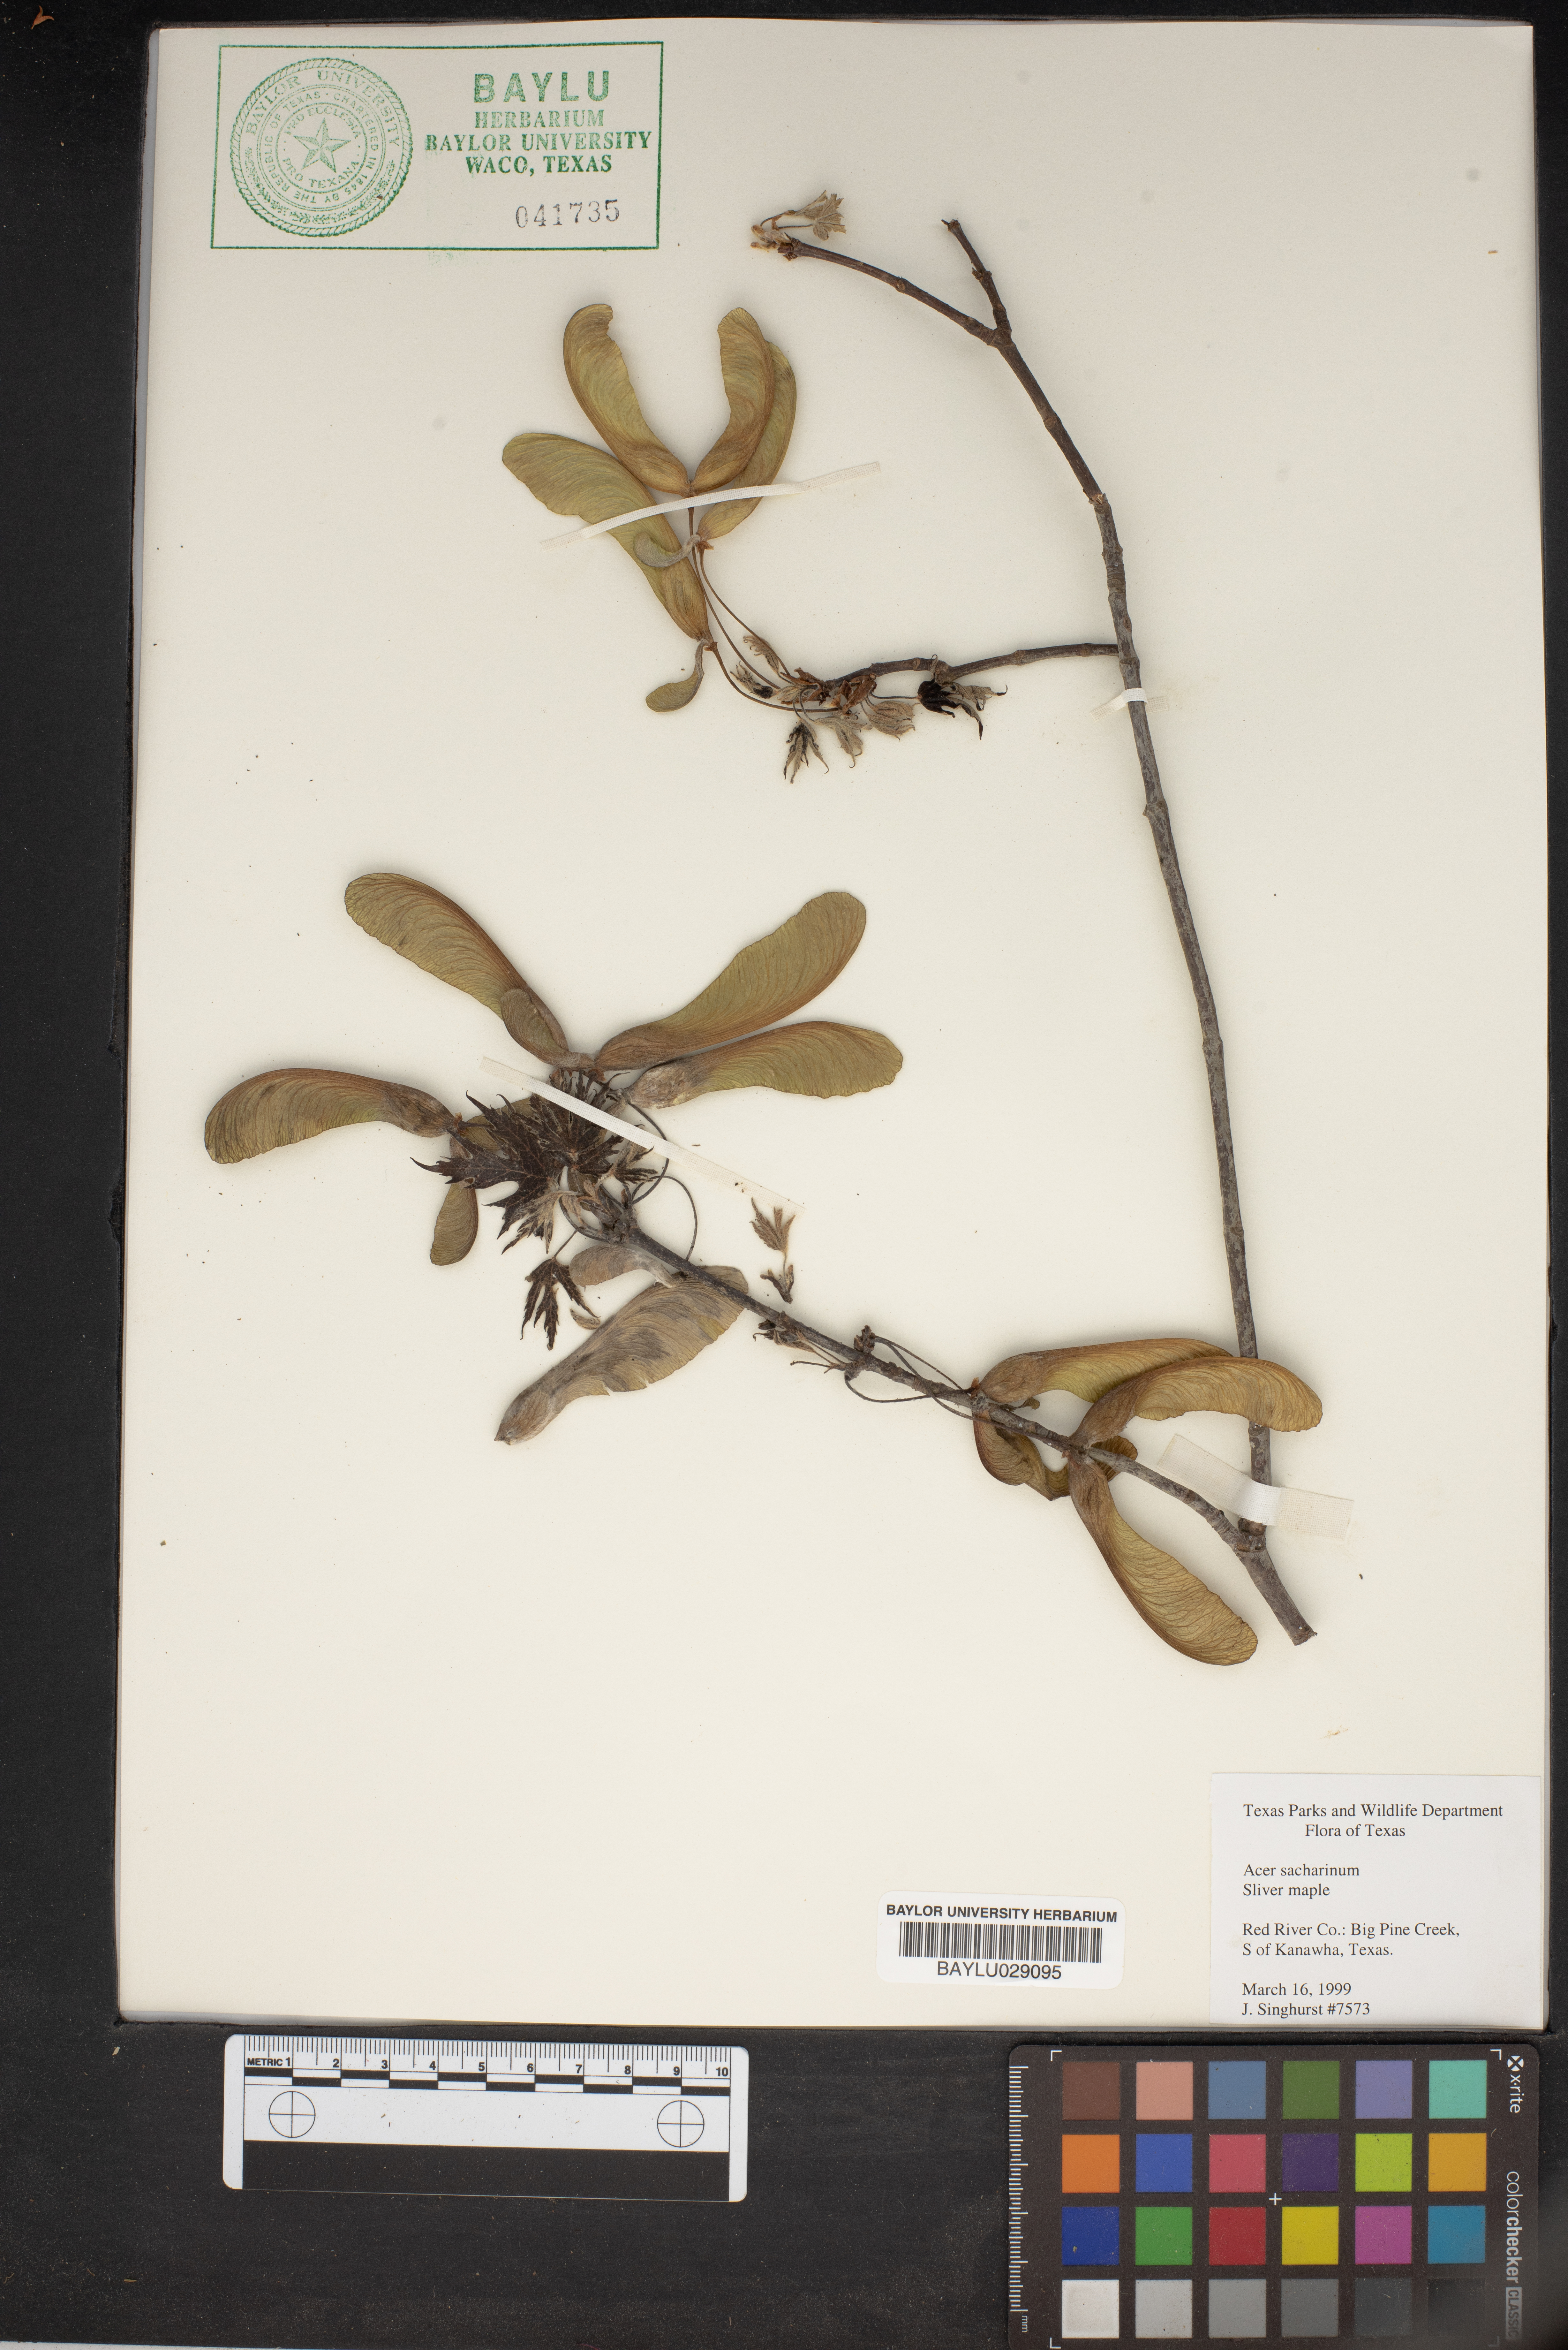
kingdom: Plantae
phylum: Tracheophyta
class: Magnoliopsida
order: Sapindales
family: Sapindaceae
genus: Acer
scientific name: Acer saccharinum
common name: Silver maple
